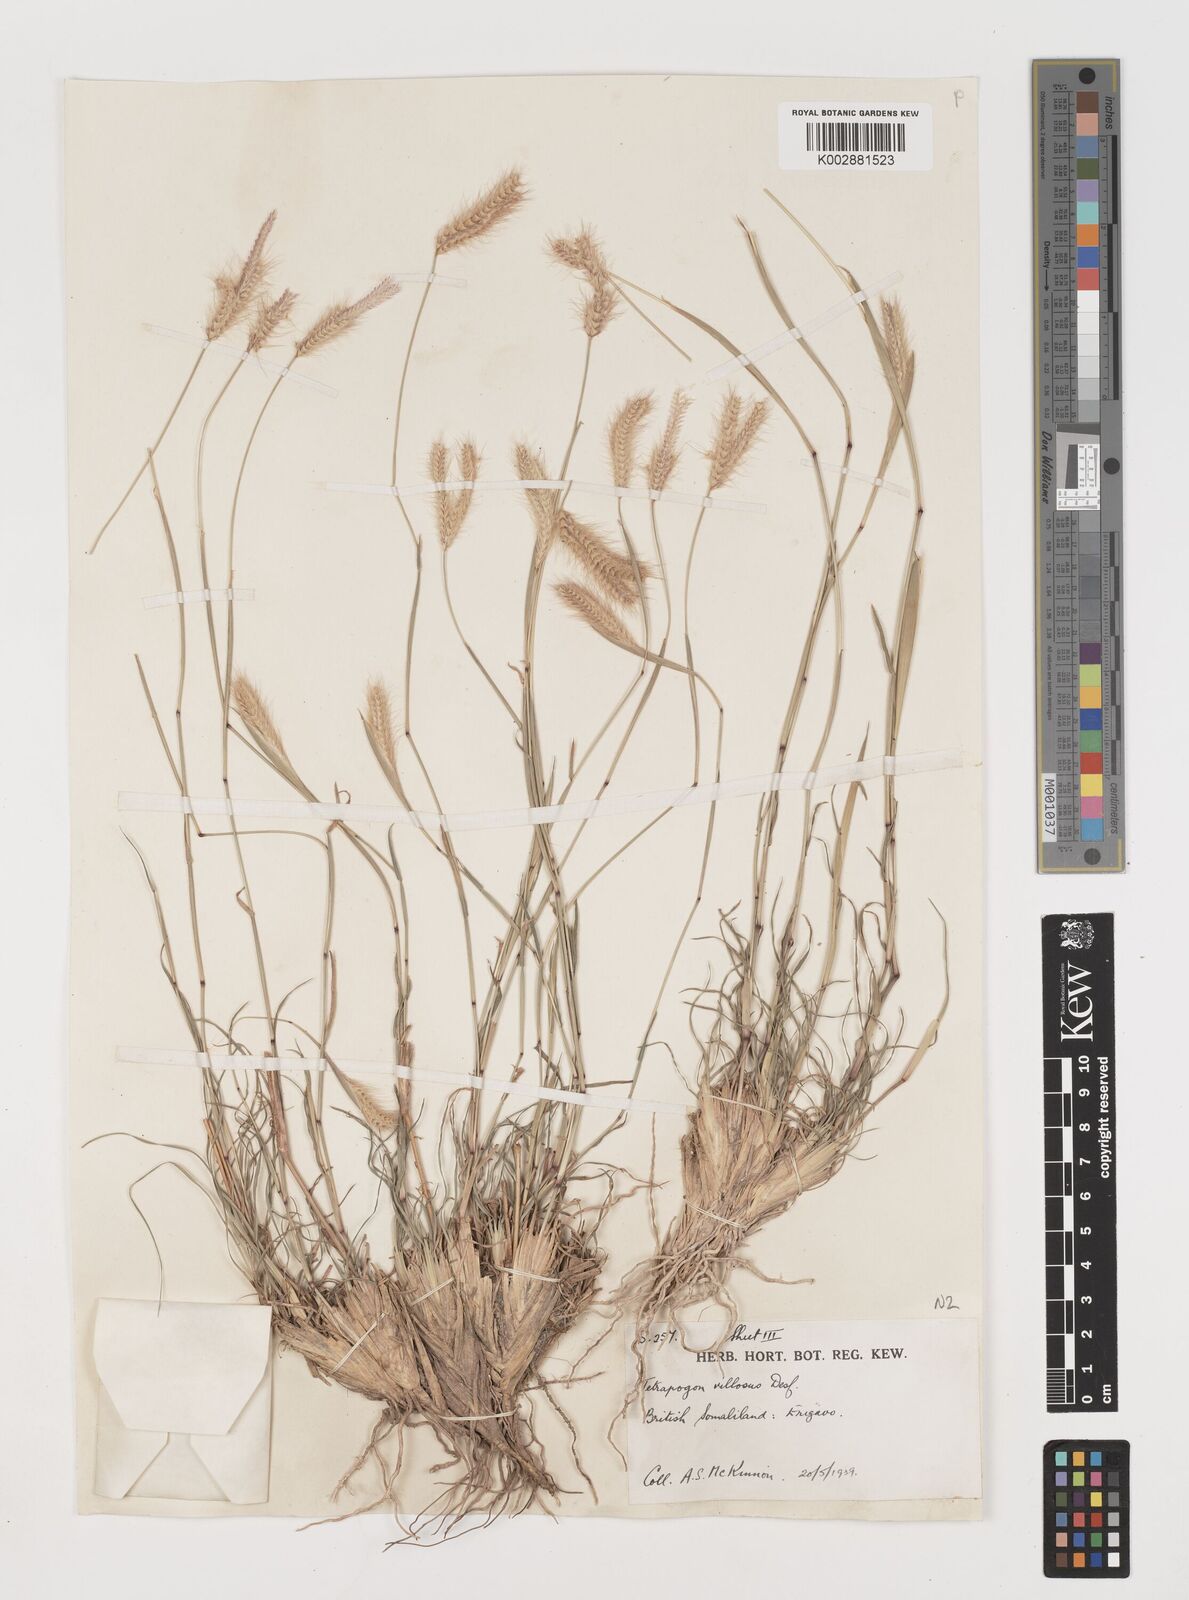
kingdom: Plantae
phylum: Tracheophyta
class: Liliopsida
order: Poales
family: Poaceae
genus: Tetrapogon
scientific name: Tetrapogon villosus
